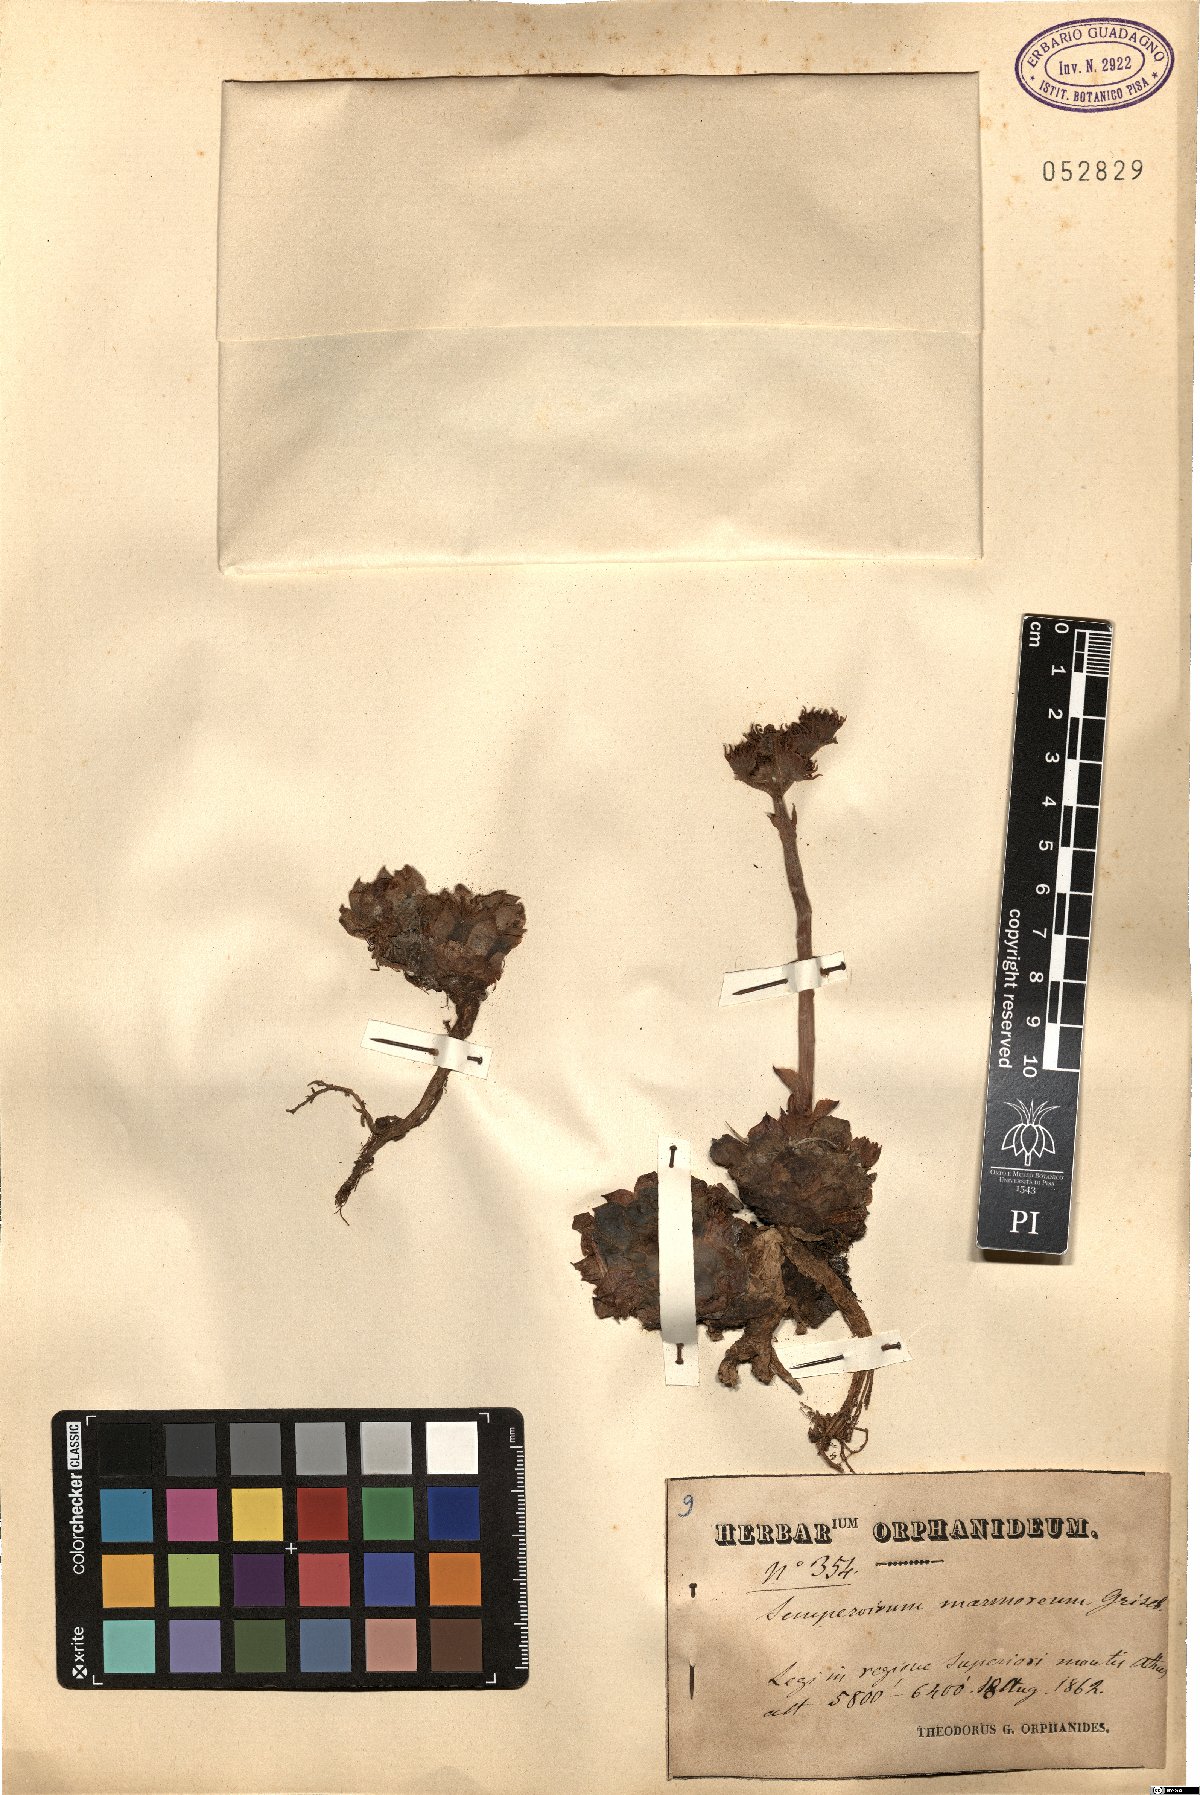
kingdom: Plantae
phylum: Tracheophyta
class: Magnoliopsida
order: Saxifragales
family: Crassulaceae
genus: Sempervivum
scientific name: Sempervivum marmoreum
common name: Houseleek
